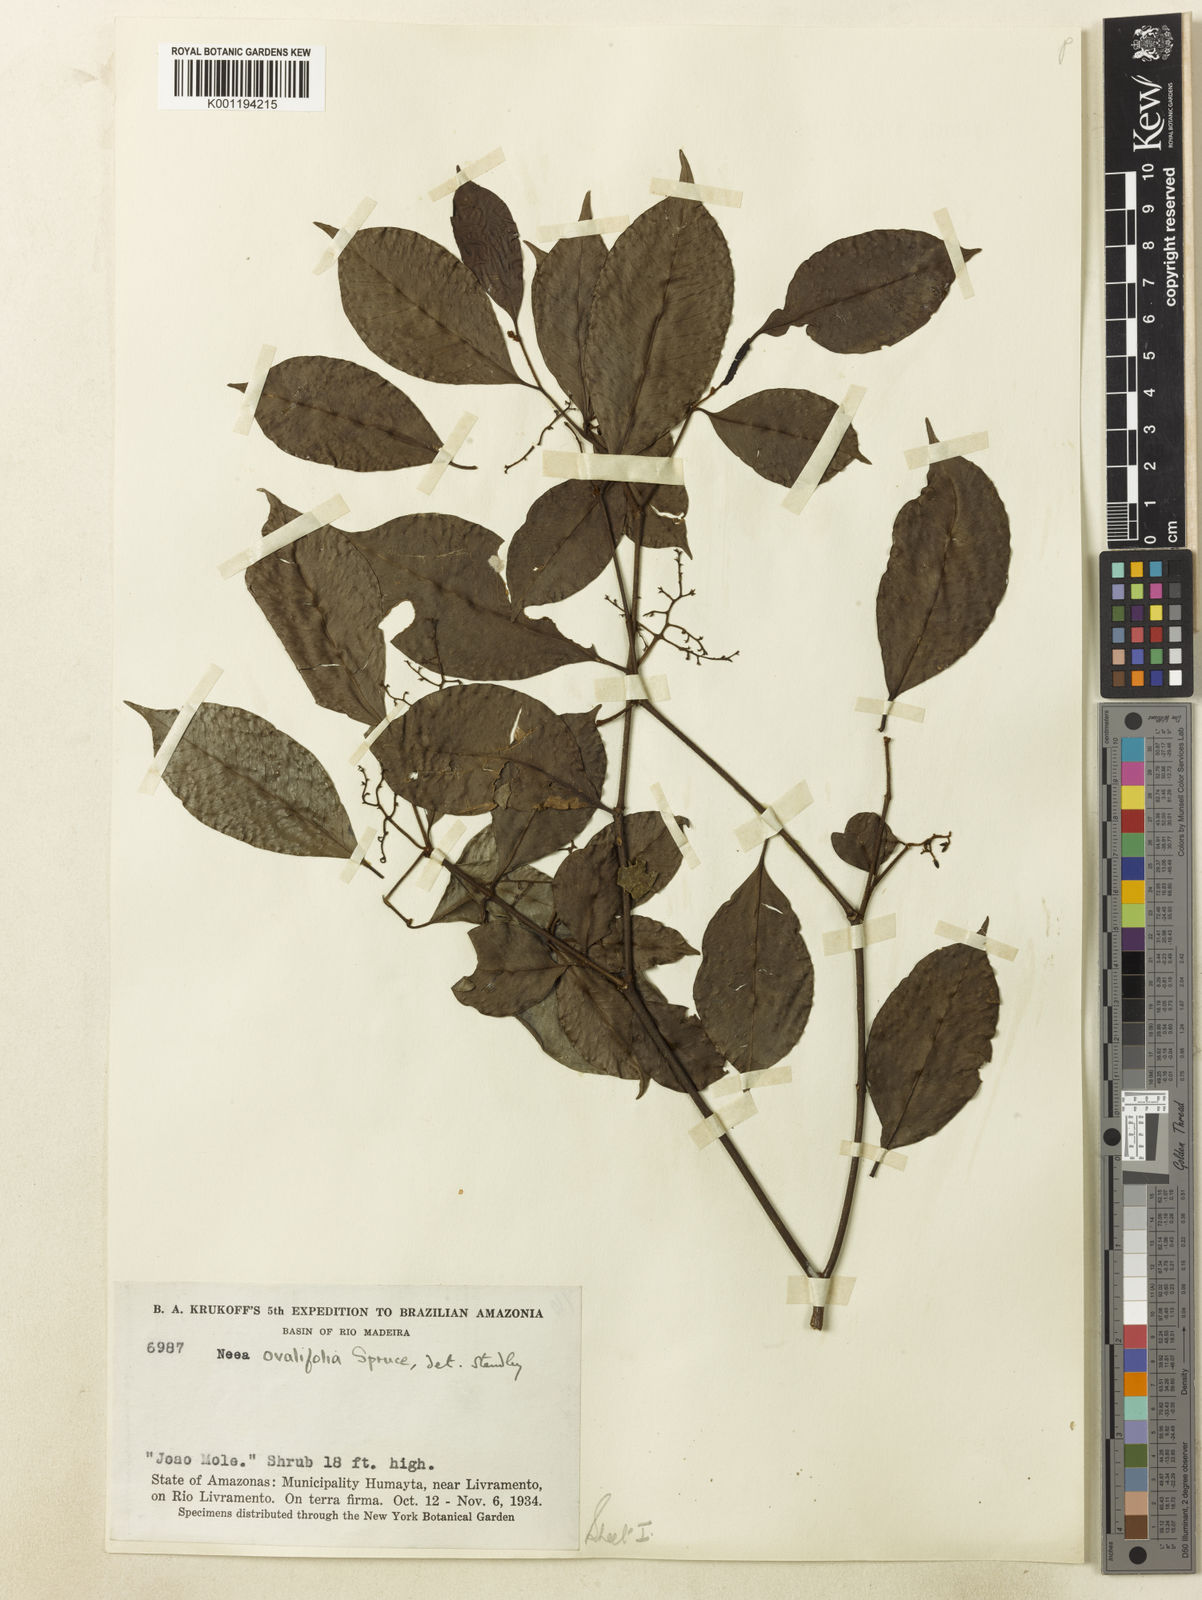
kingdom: Plantae
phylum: Tracheophyta
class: Magnoliopsida
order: Caryophyllales
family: Nyctaginaceae
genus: Neea
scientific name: Neea ovalifolia
